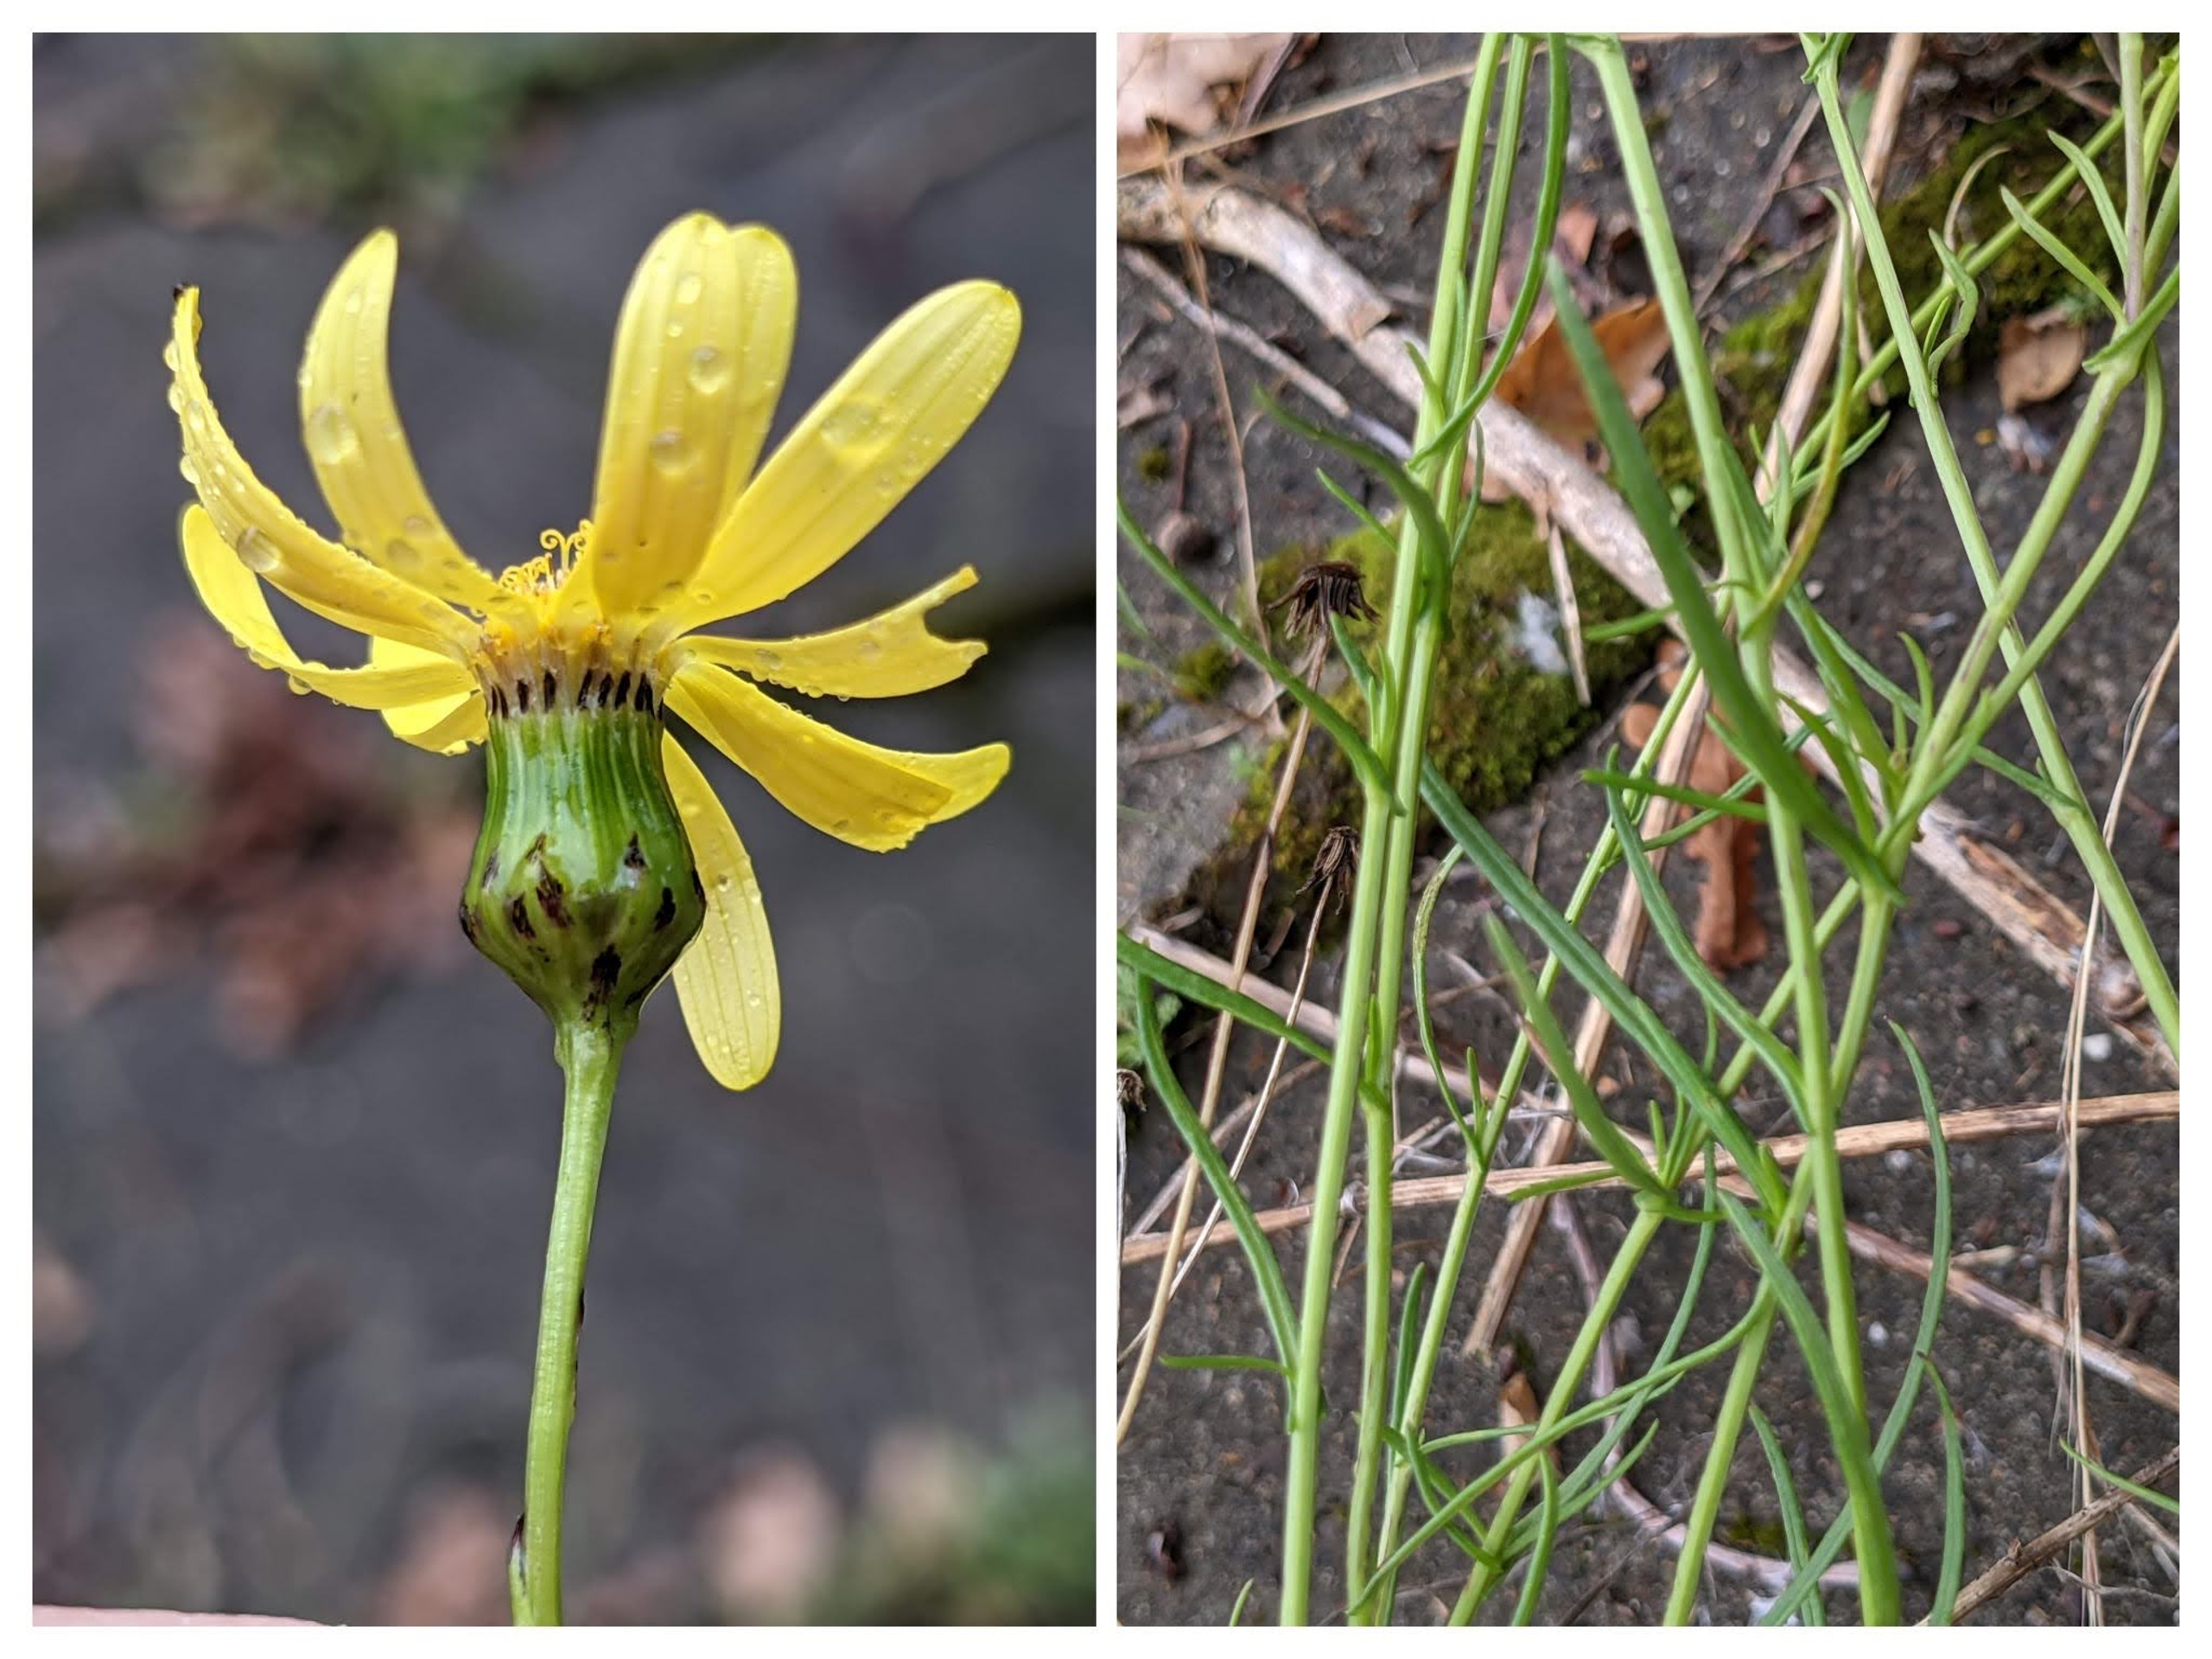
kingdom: Plantae
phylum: Tracheophyta
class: Magnoliopsida
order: Asterales
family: Asteraceae
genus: Senecio
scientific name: Senecio inaequidens
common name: Smalbladet brandbæger
